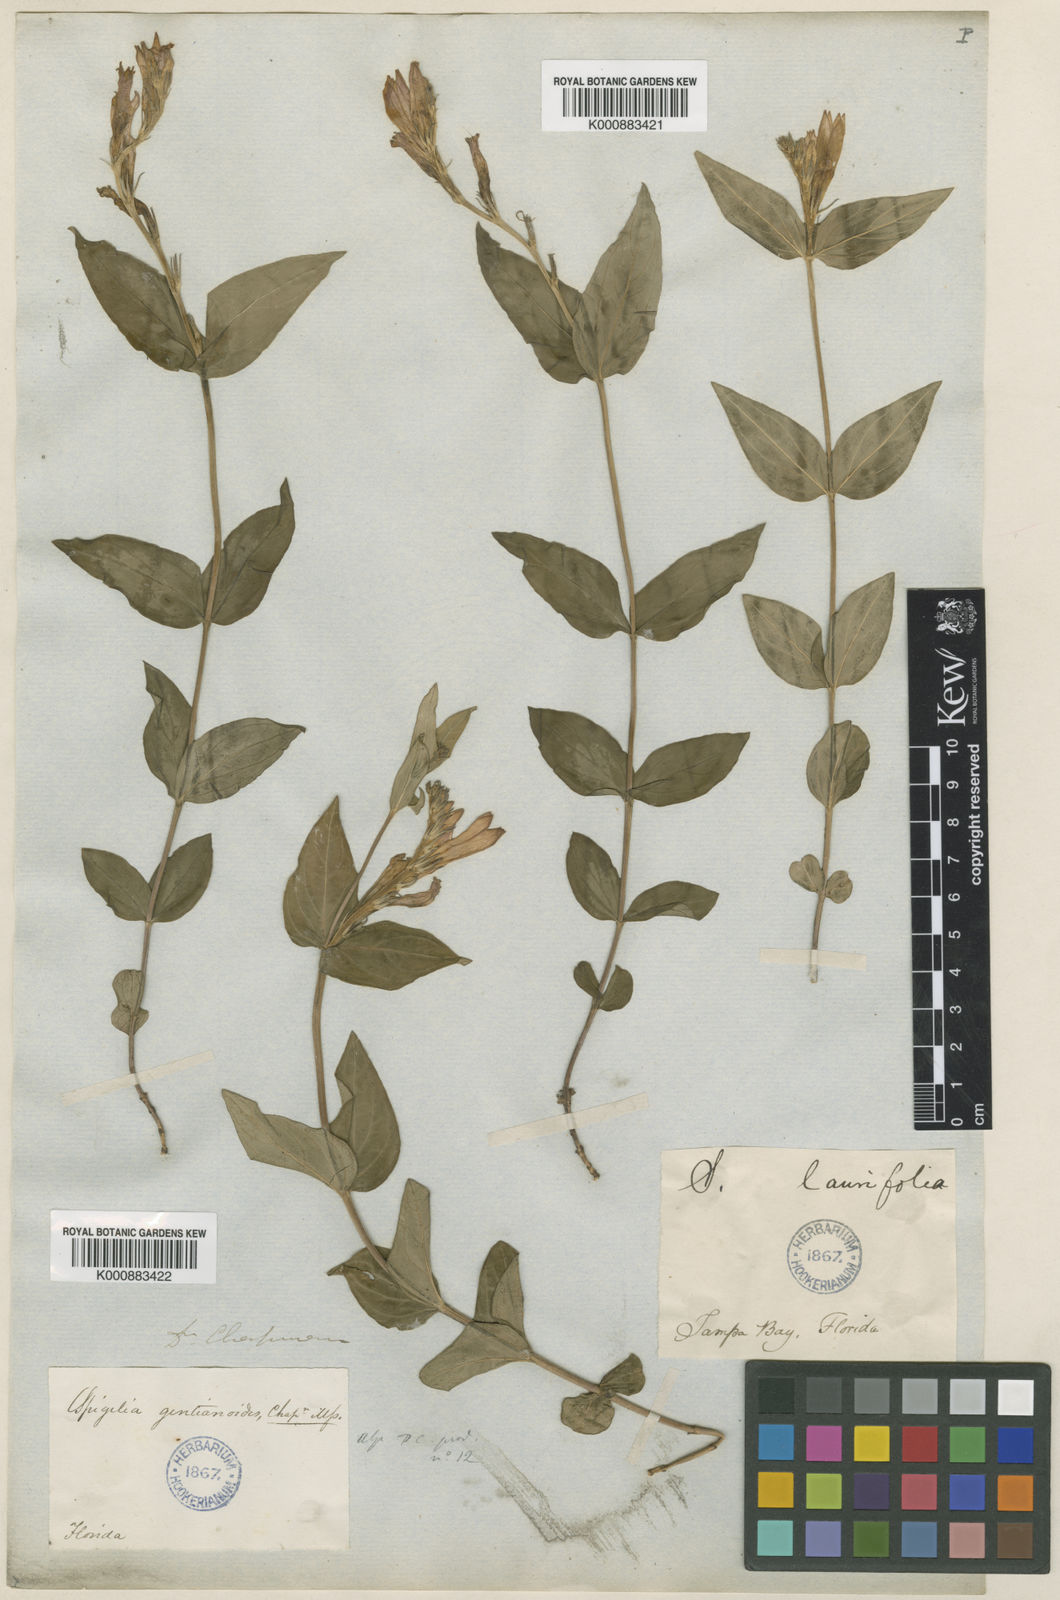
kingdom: Plantae
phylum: Tracheophyta
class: Magnoliopsida
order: Gentianales
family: Loganiaceae
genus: Spigelia
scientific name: Spigelia gentianoides
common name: Gentian pinkroot
